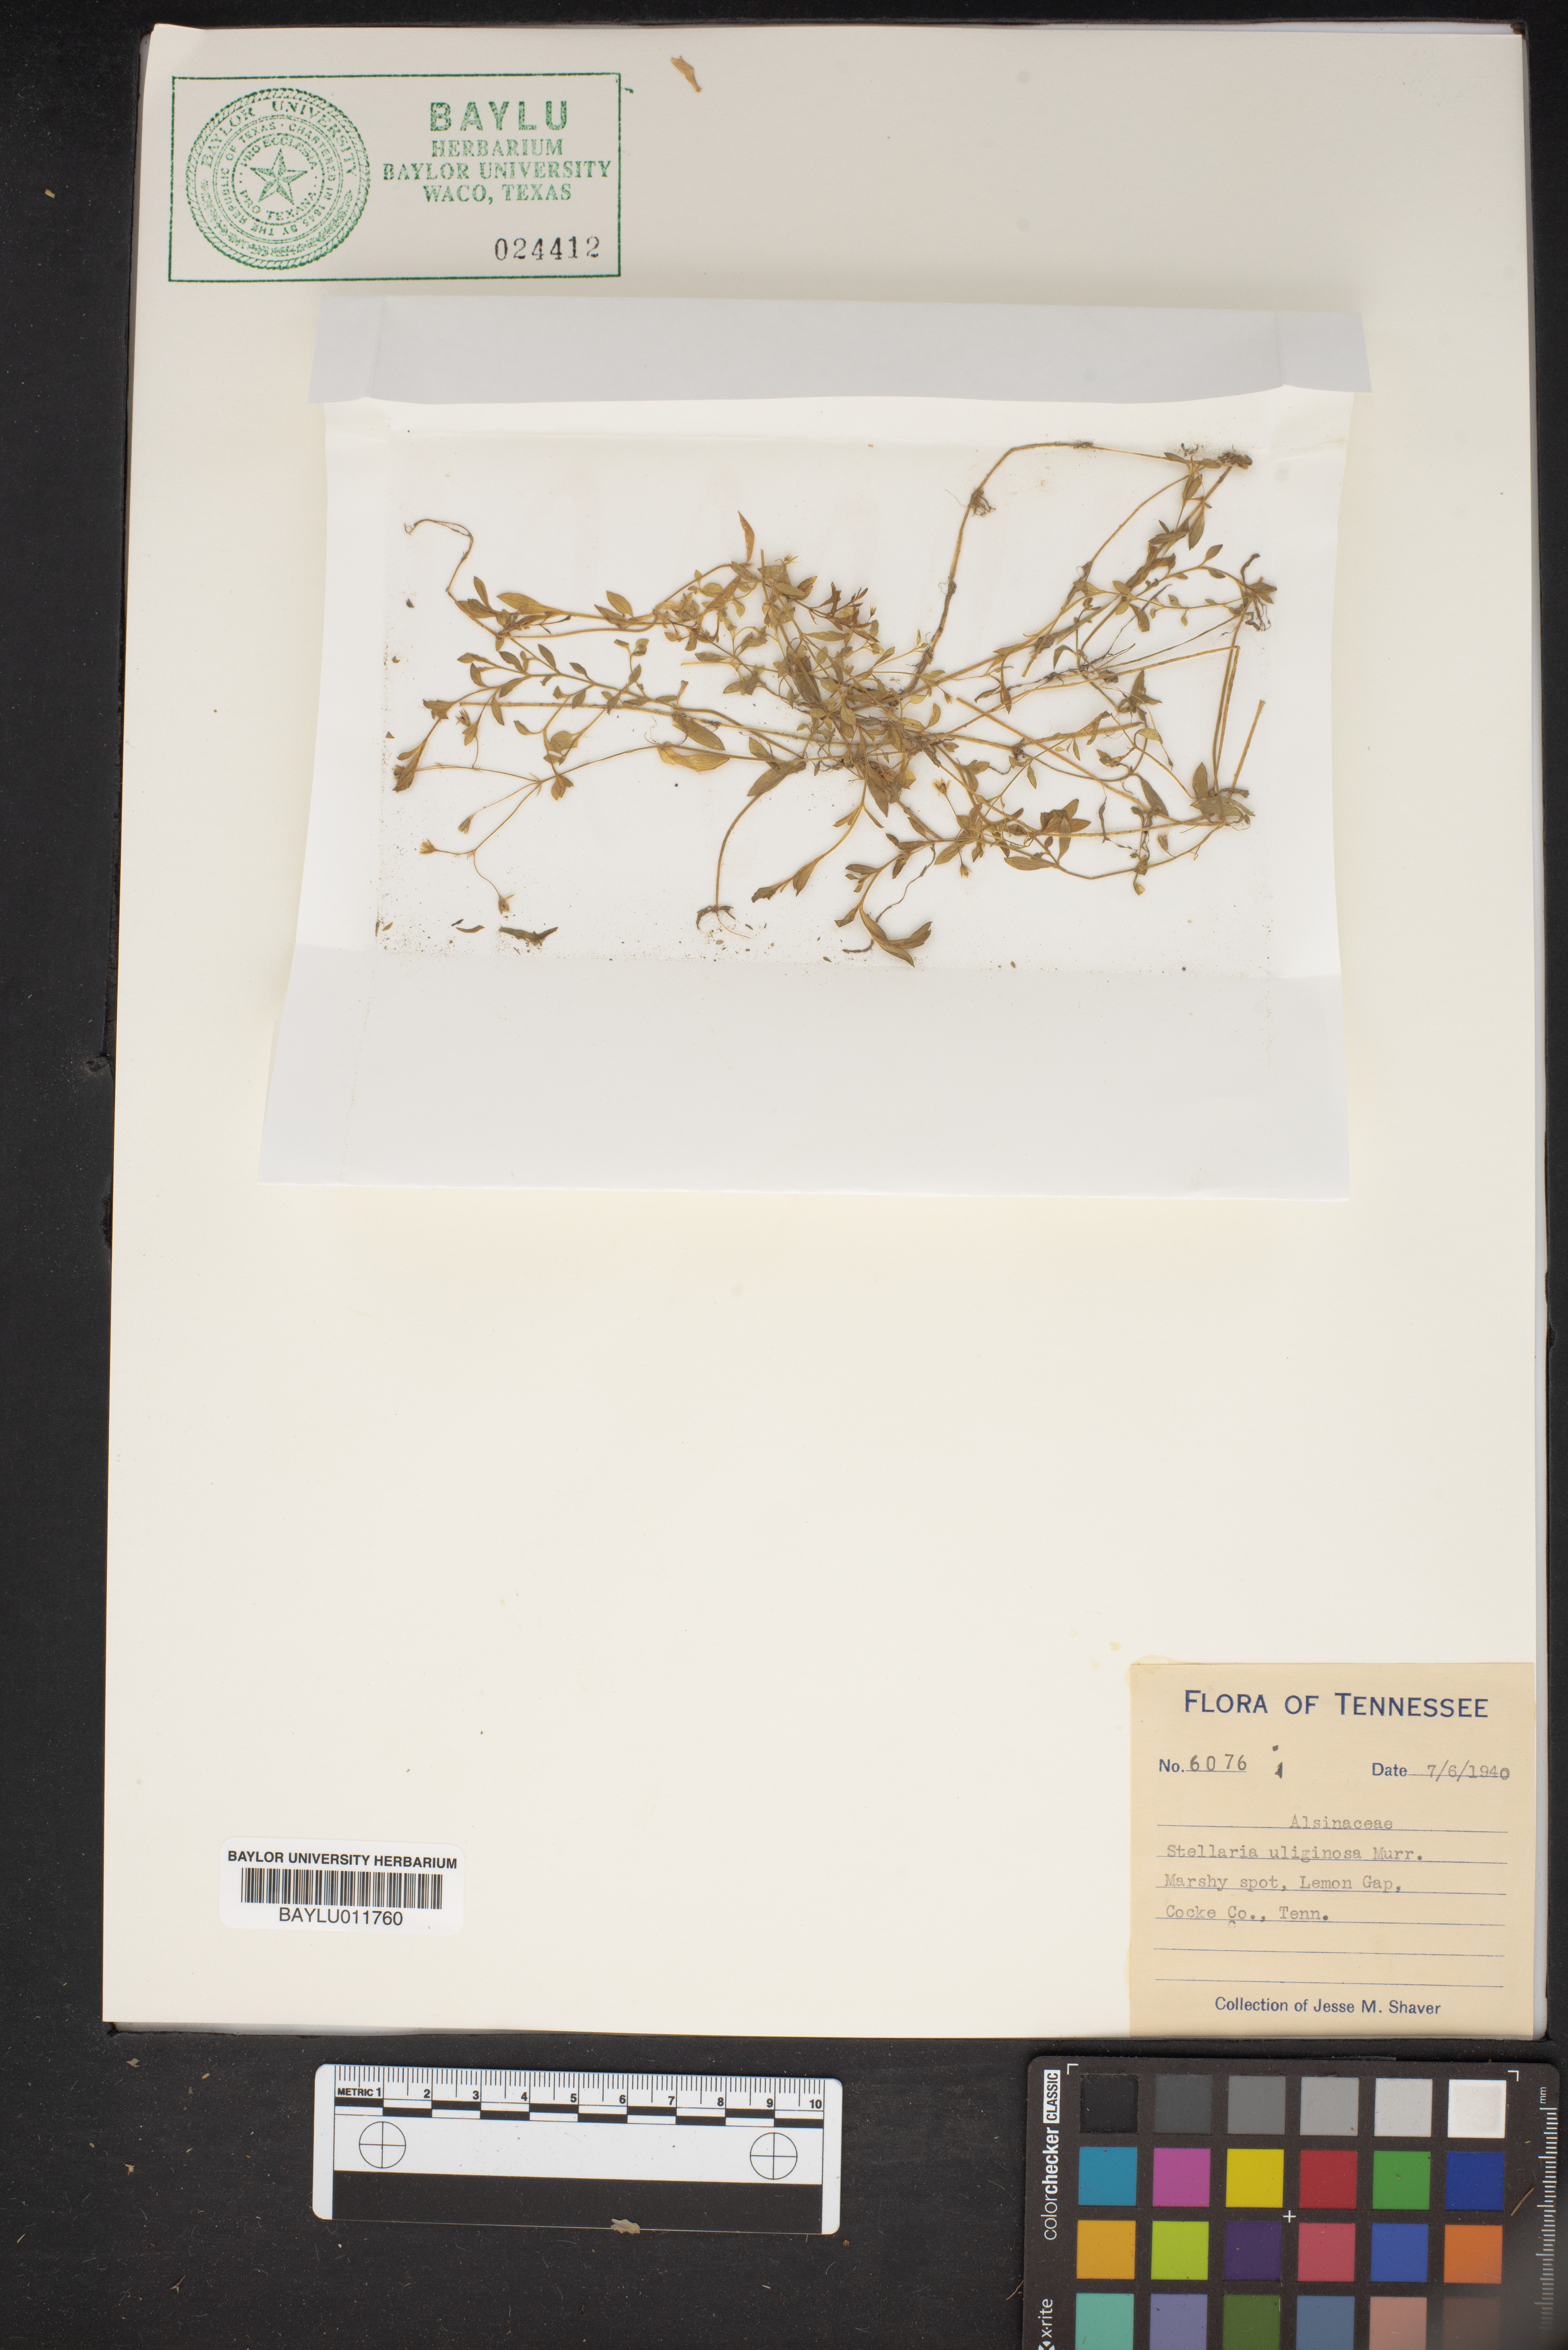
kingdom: Plantae
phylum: Tracheophyta
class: Magnoliopsida
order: Caryophyllales
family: Caryophyllaceae
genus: Stellaria
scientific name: Stellaria alsine
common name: Bog stitchwort
